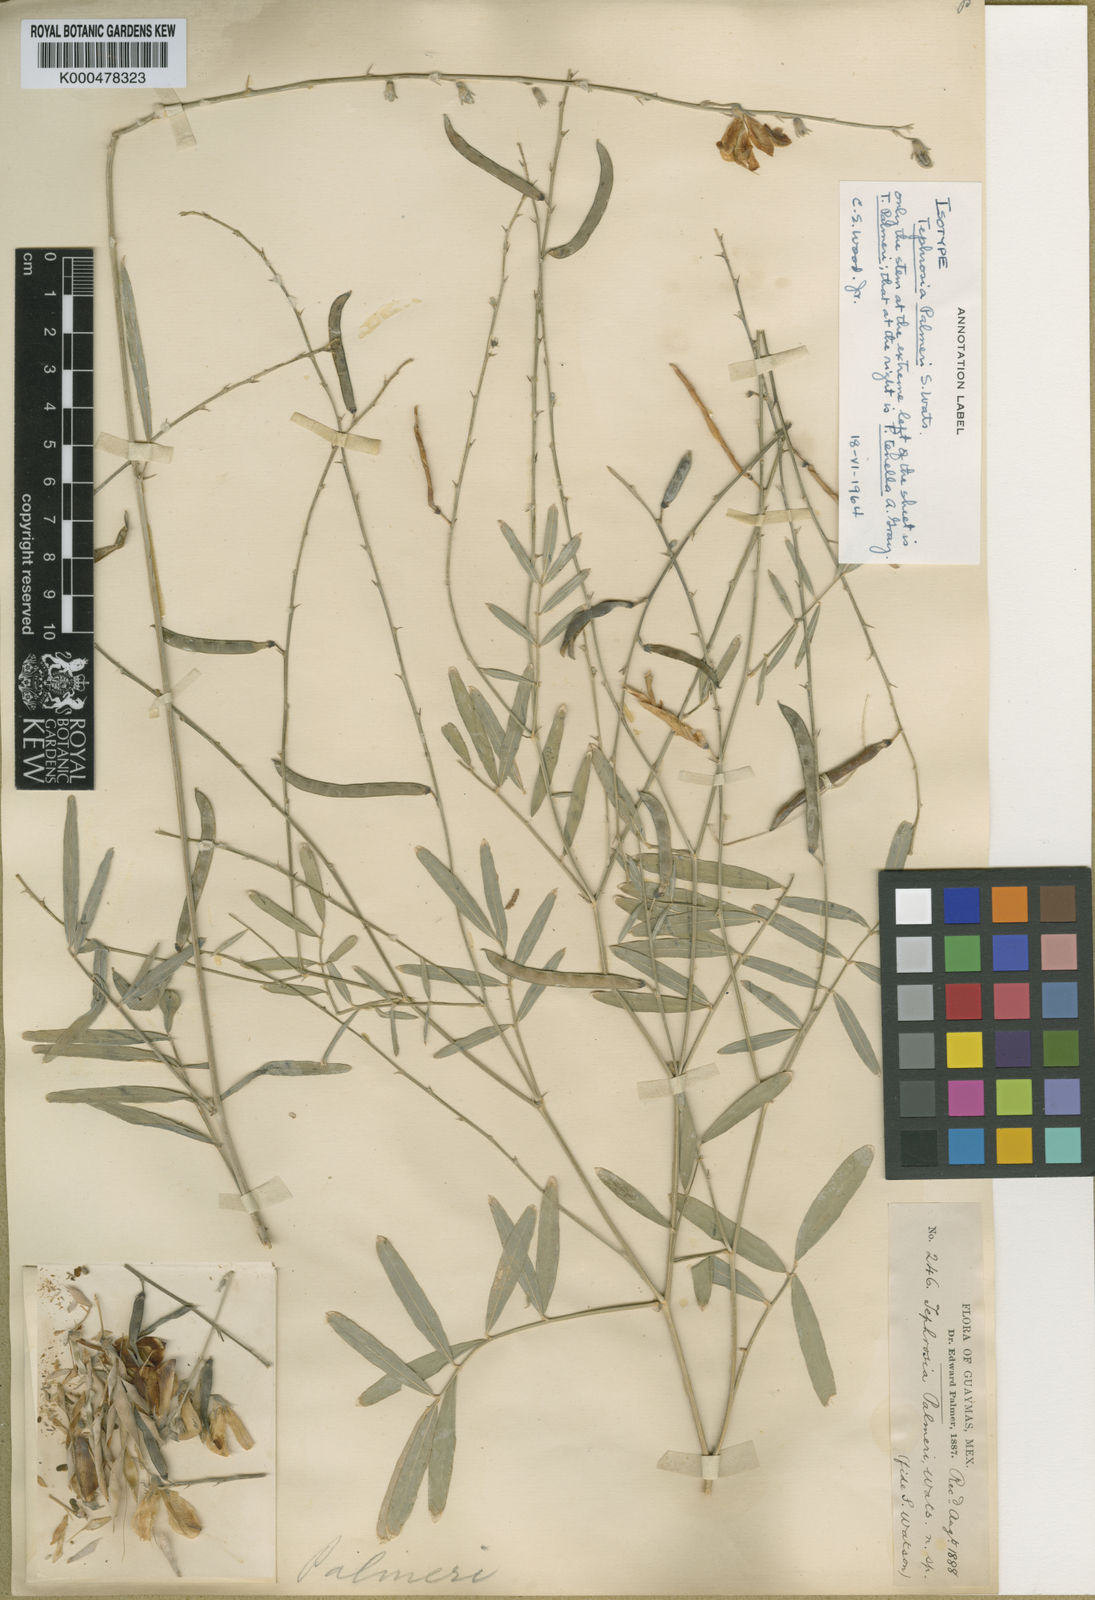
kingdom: Plantae
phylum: Tracheophyta
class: Magnoliopsida
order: Fabales
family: Fabaceae
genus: Tephrosia
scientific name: Tephrosia palmeri
